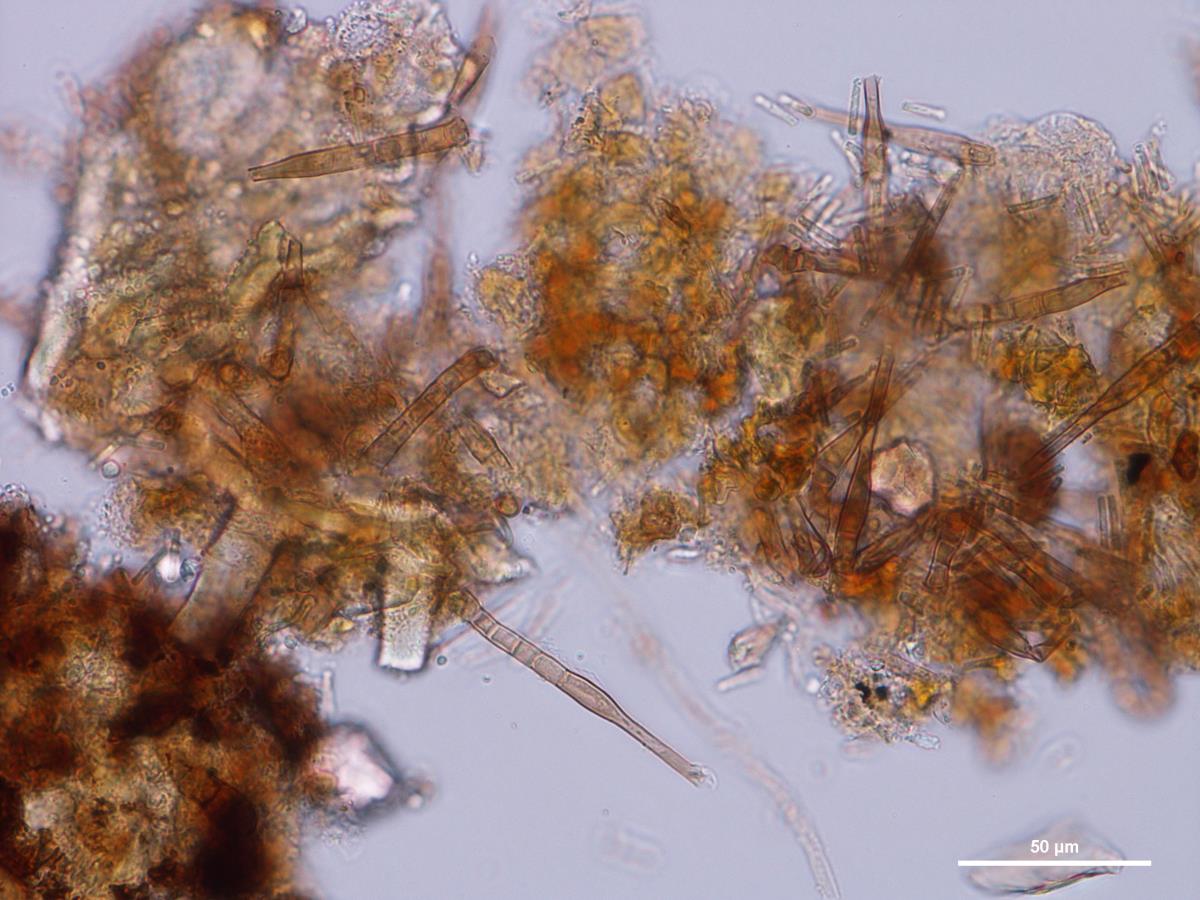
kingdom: Fungi
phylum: Ascomycota
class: Leotiomycetes
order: Helotiales
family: Pezizellaceae
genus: Chalara
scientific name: Chalara affinis
